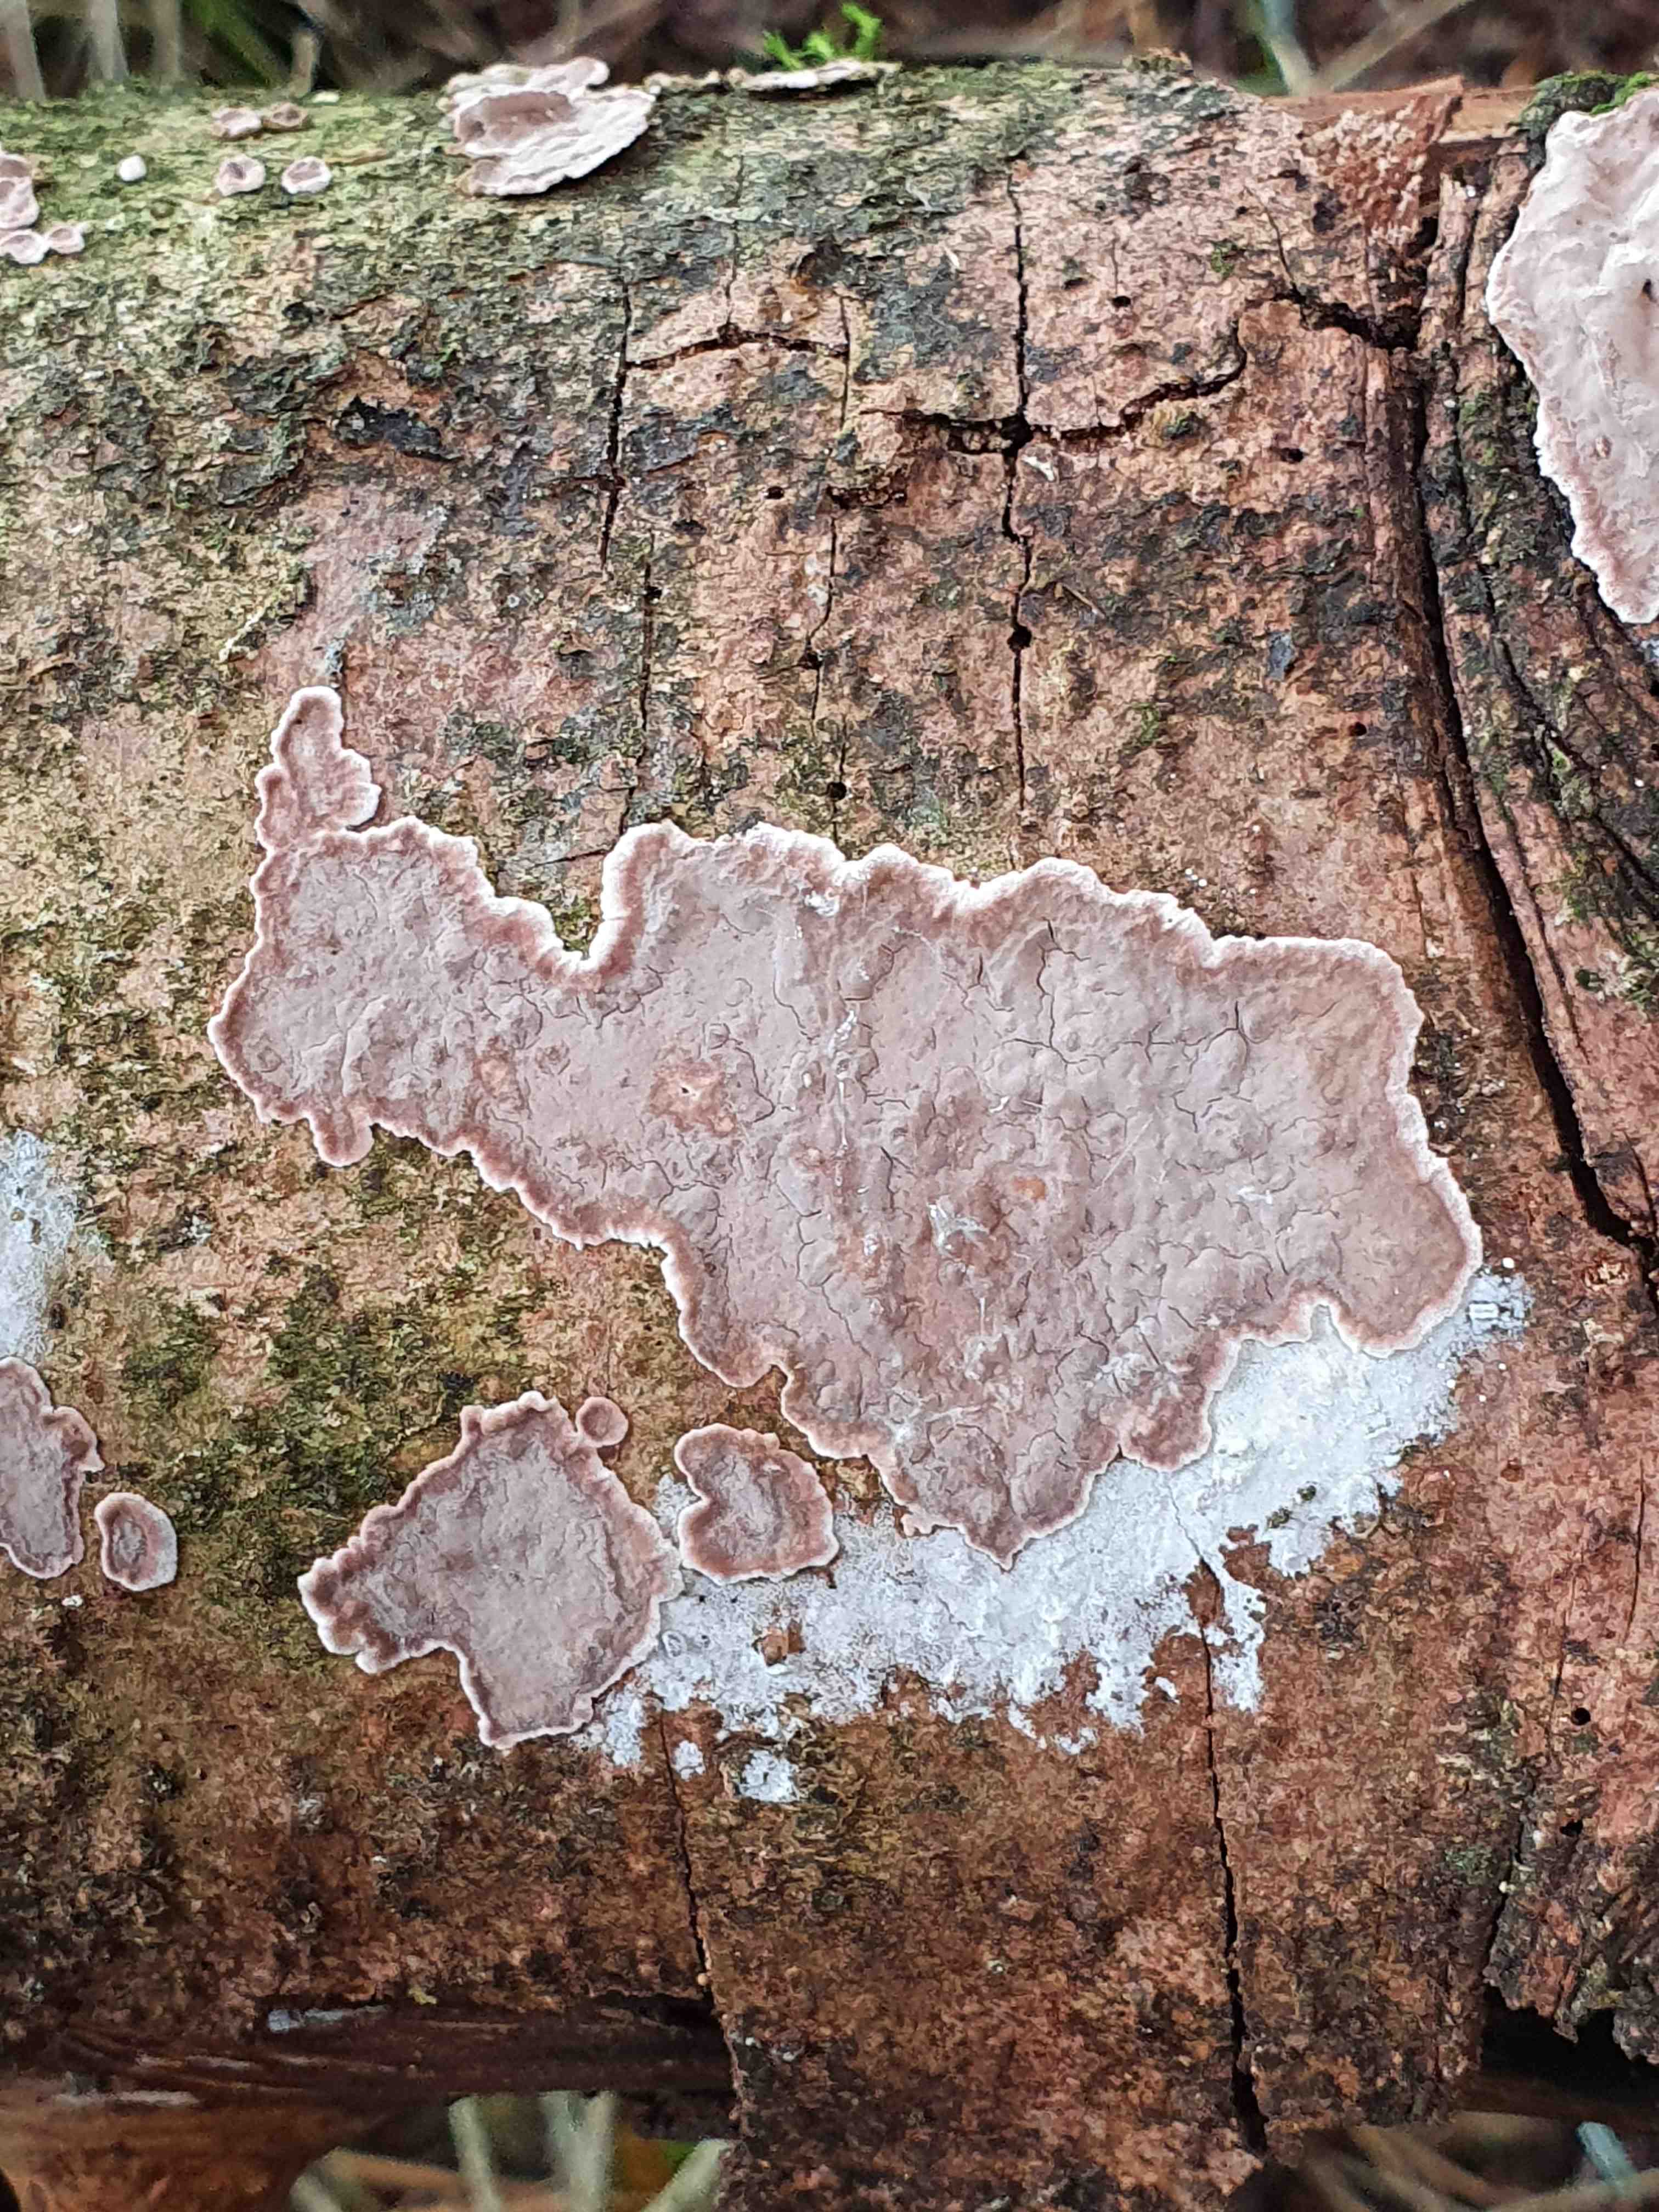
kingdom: Fungi
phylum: Basidiomycota
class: Agaricomycetes
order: Russulales
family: Echinodontiaceae
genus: Amylostereum
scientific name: Amylostereum chailletii
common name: gran-lædersvamp
